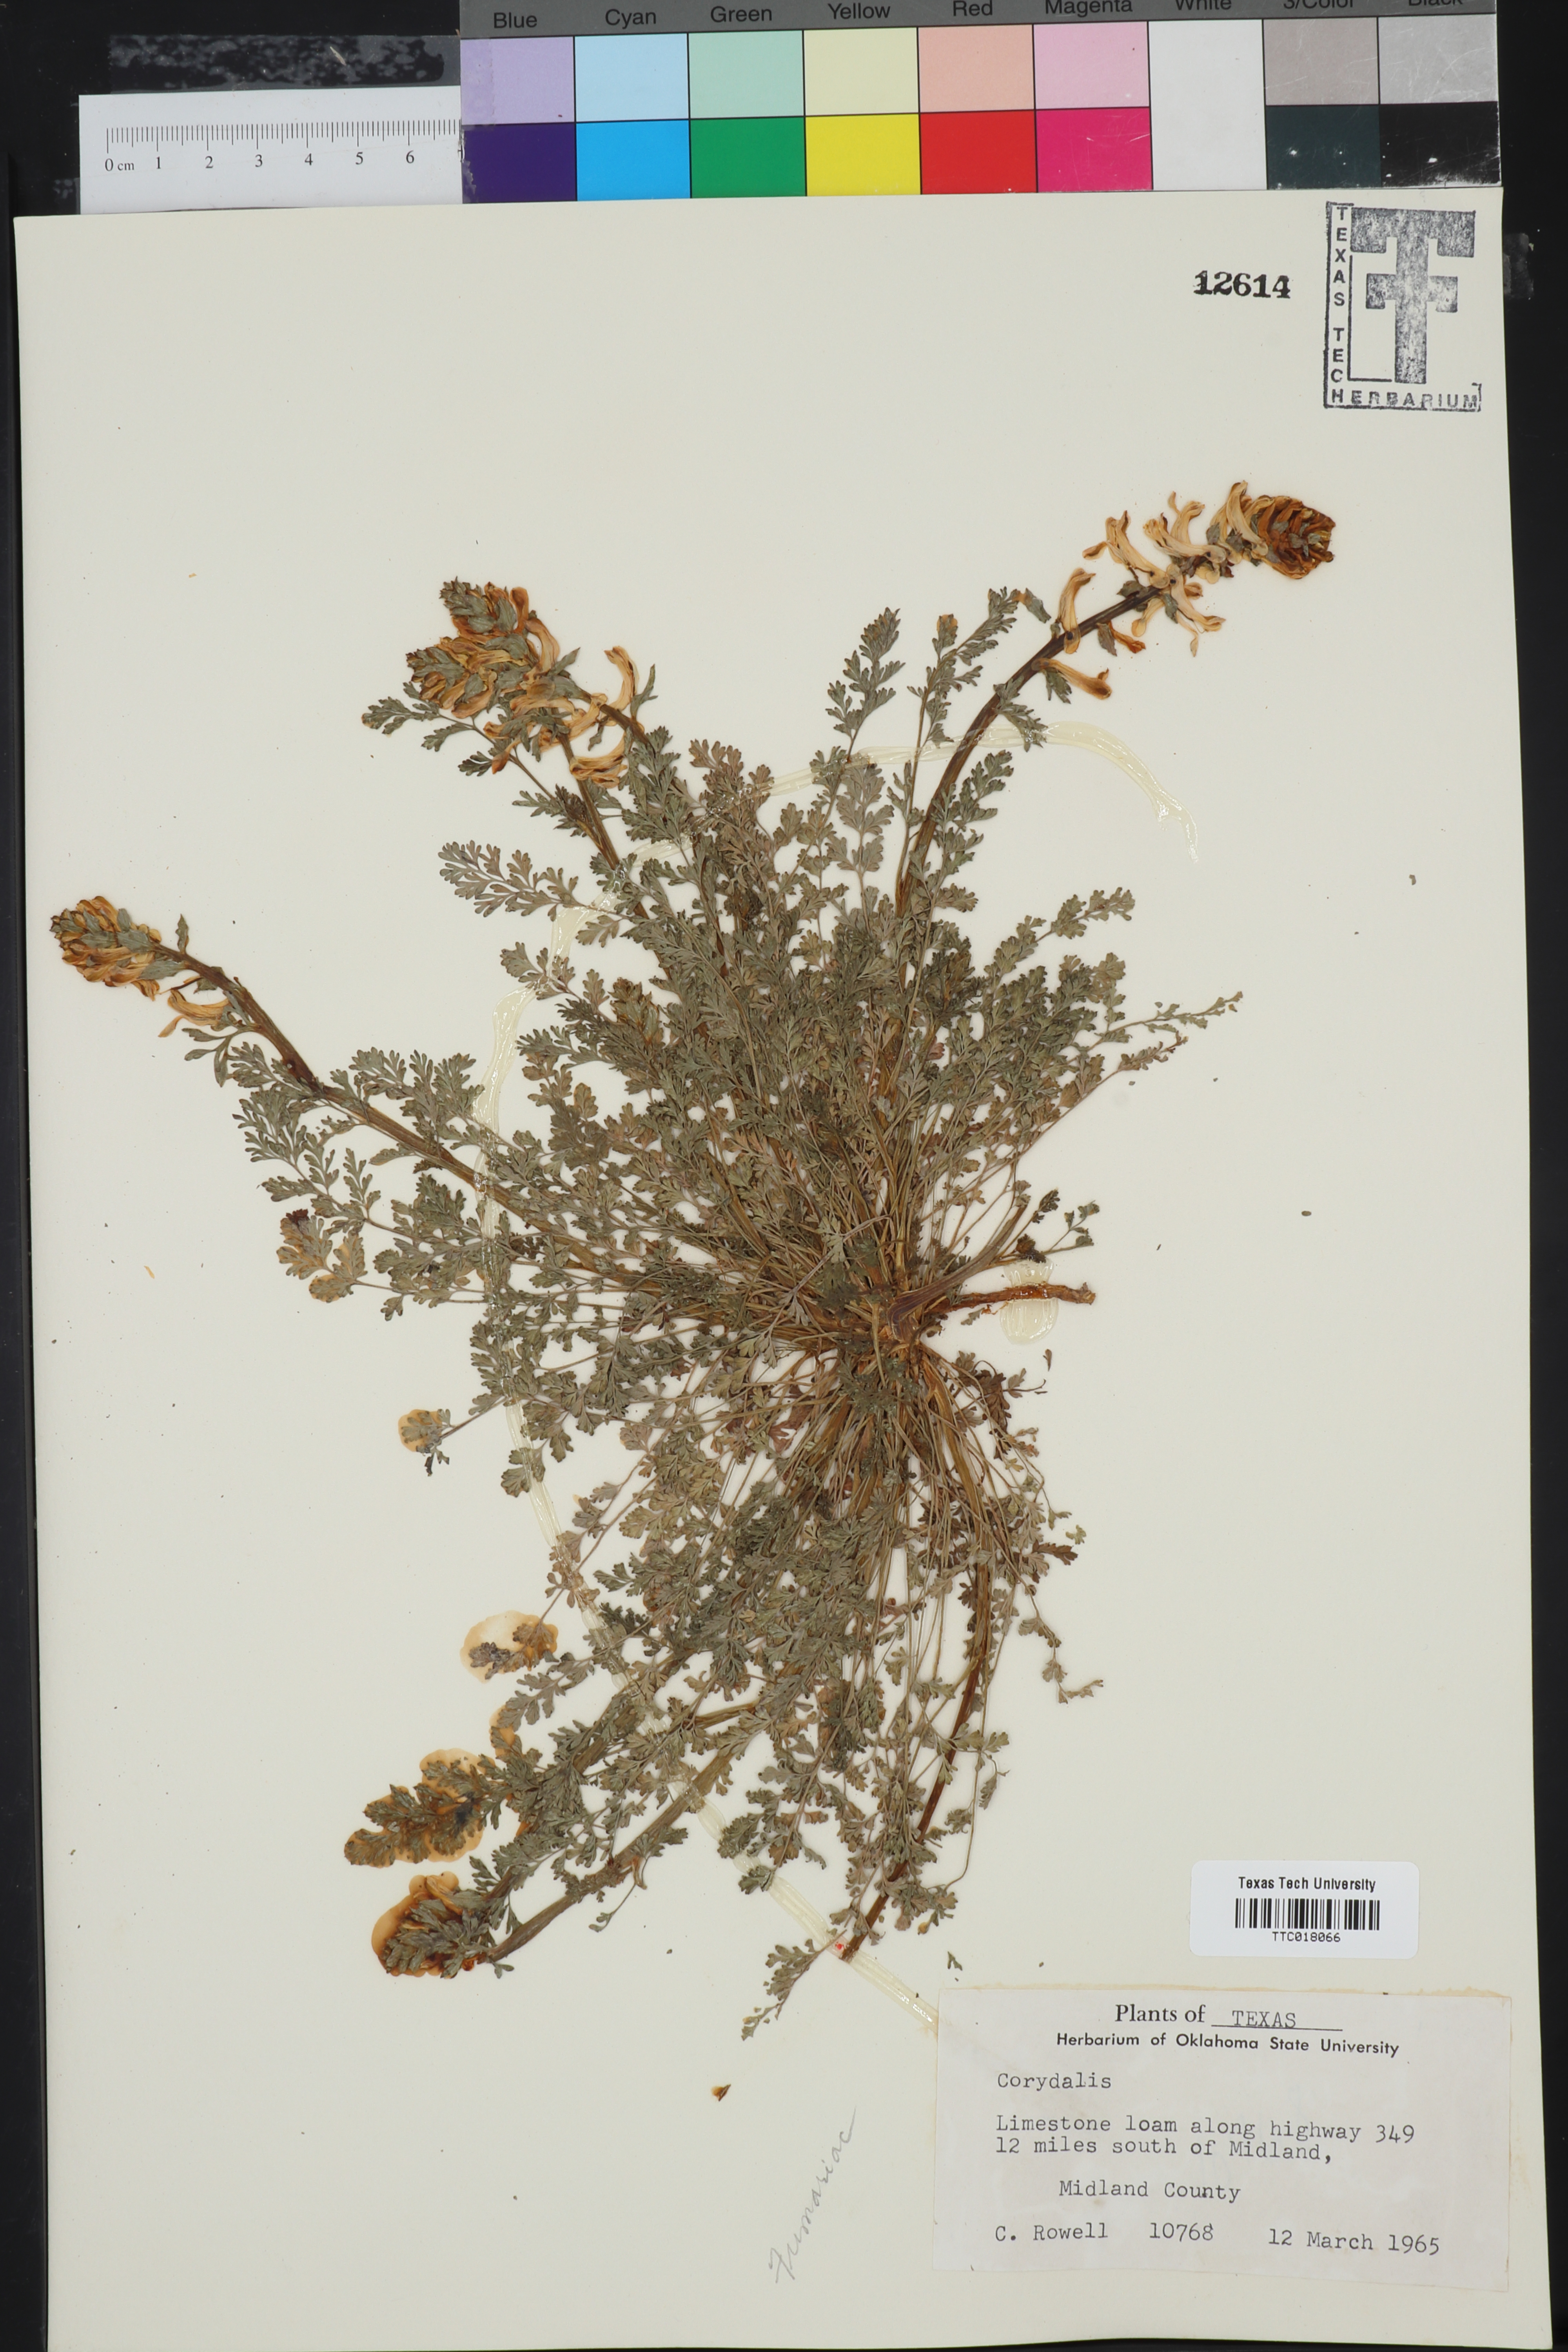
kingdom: Plantae
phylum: Tracheophyta
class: Magnoliopsida
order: Ranunculales
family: Papaveraceae
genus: Corydalis
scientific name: Corydalis curvisiliqua
